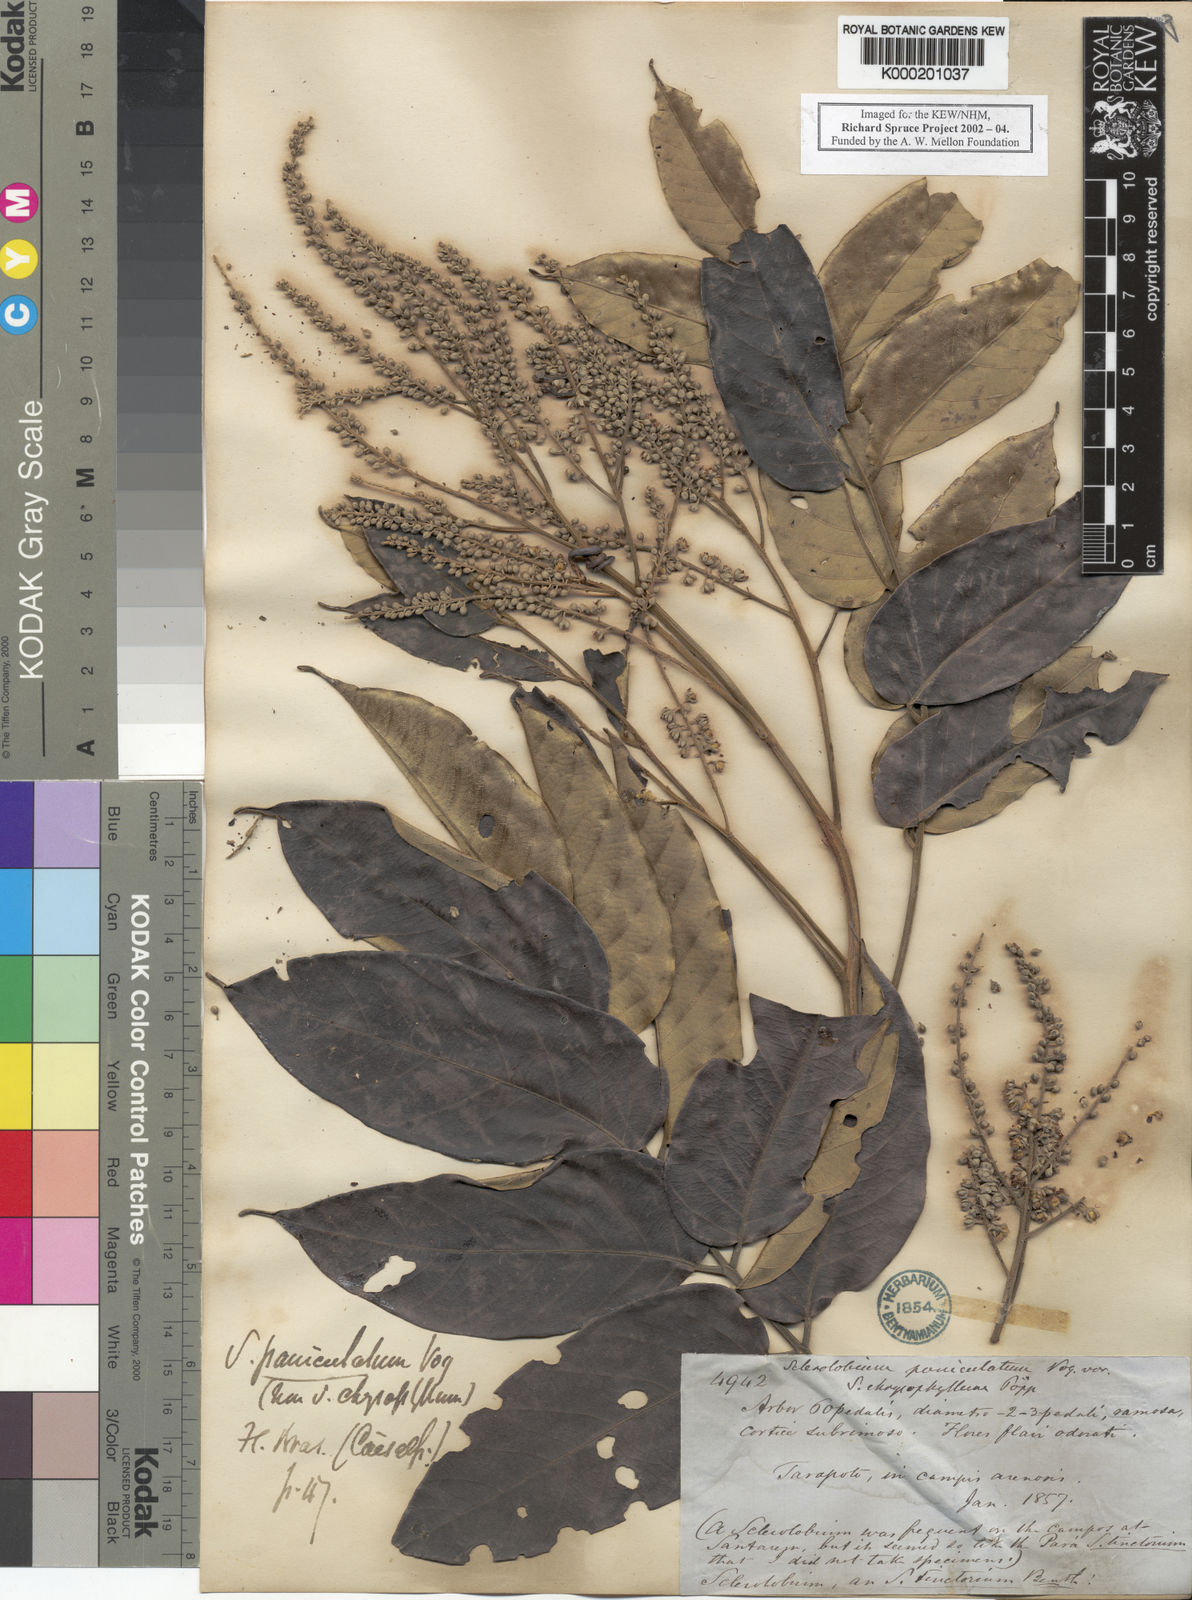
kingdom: Plantae
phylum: Tracheophyta
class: Magnoliopsida
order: Fabales
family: Fabaceae
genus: Tachigali
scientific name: Tachigali vulgaris
